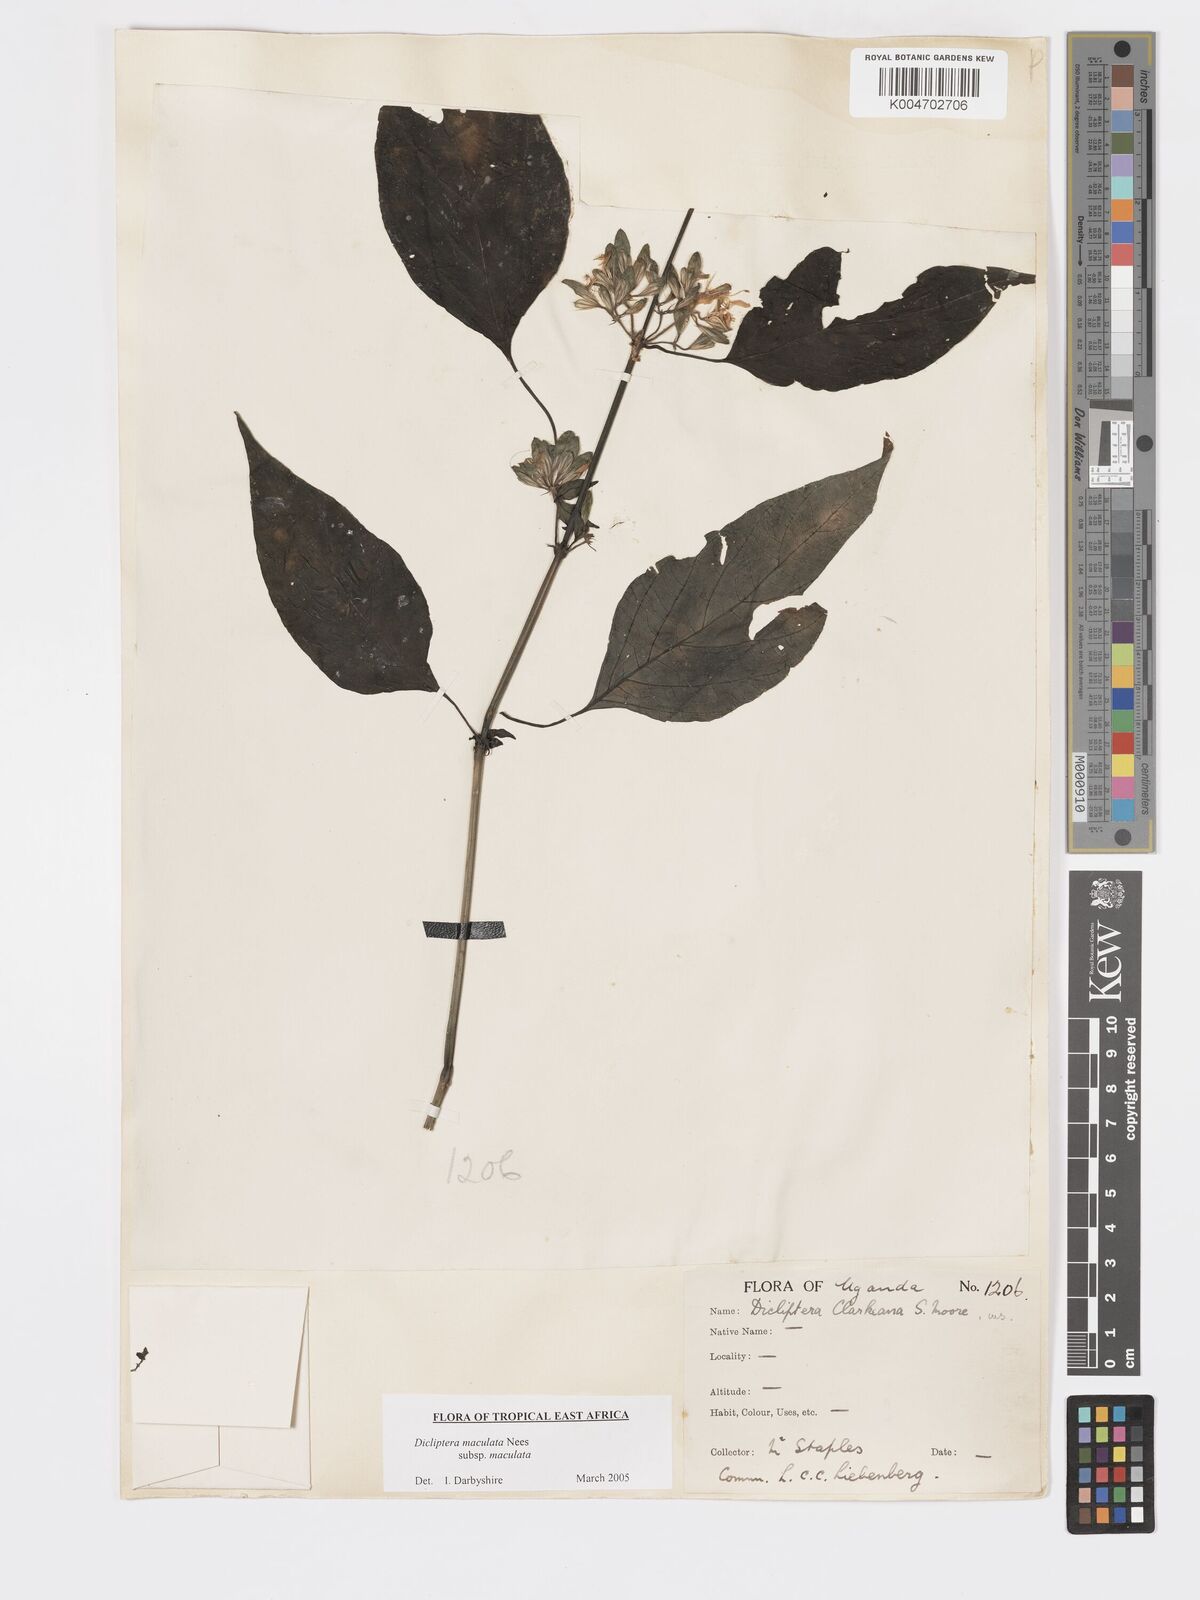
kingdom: Plantae
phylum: Tracheophyta
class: Magnoliopsida
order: Lamiales
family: Acanthaceae
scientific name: Acanthaceae
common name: Acanthaceae
